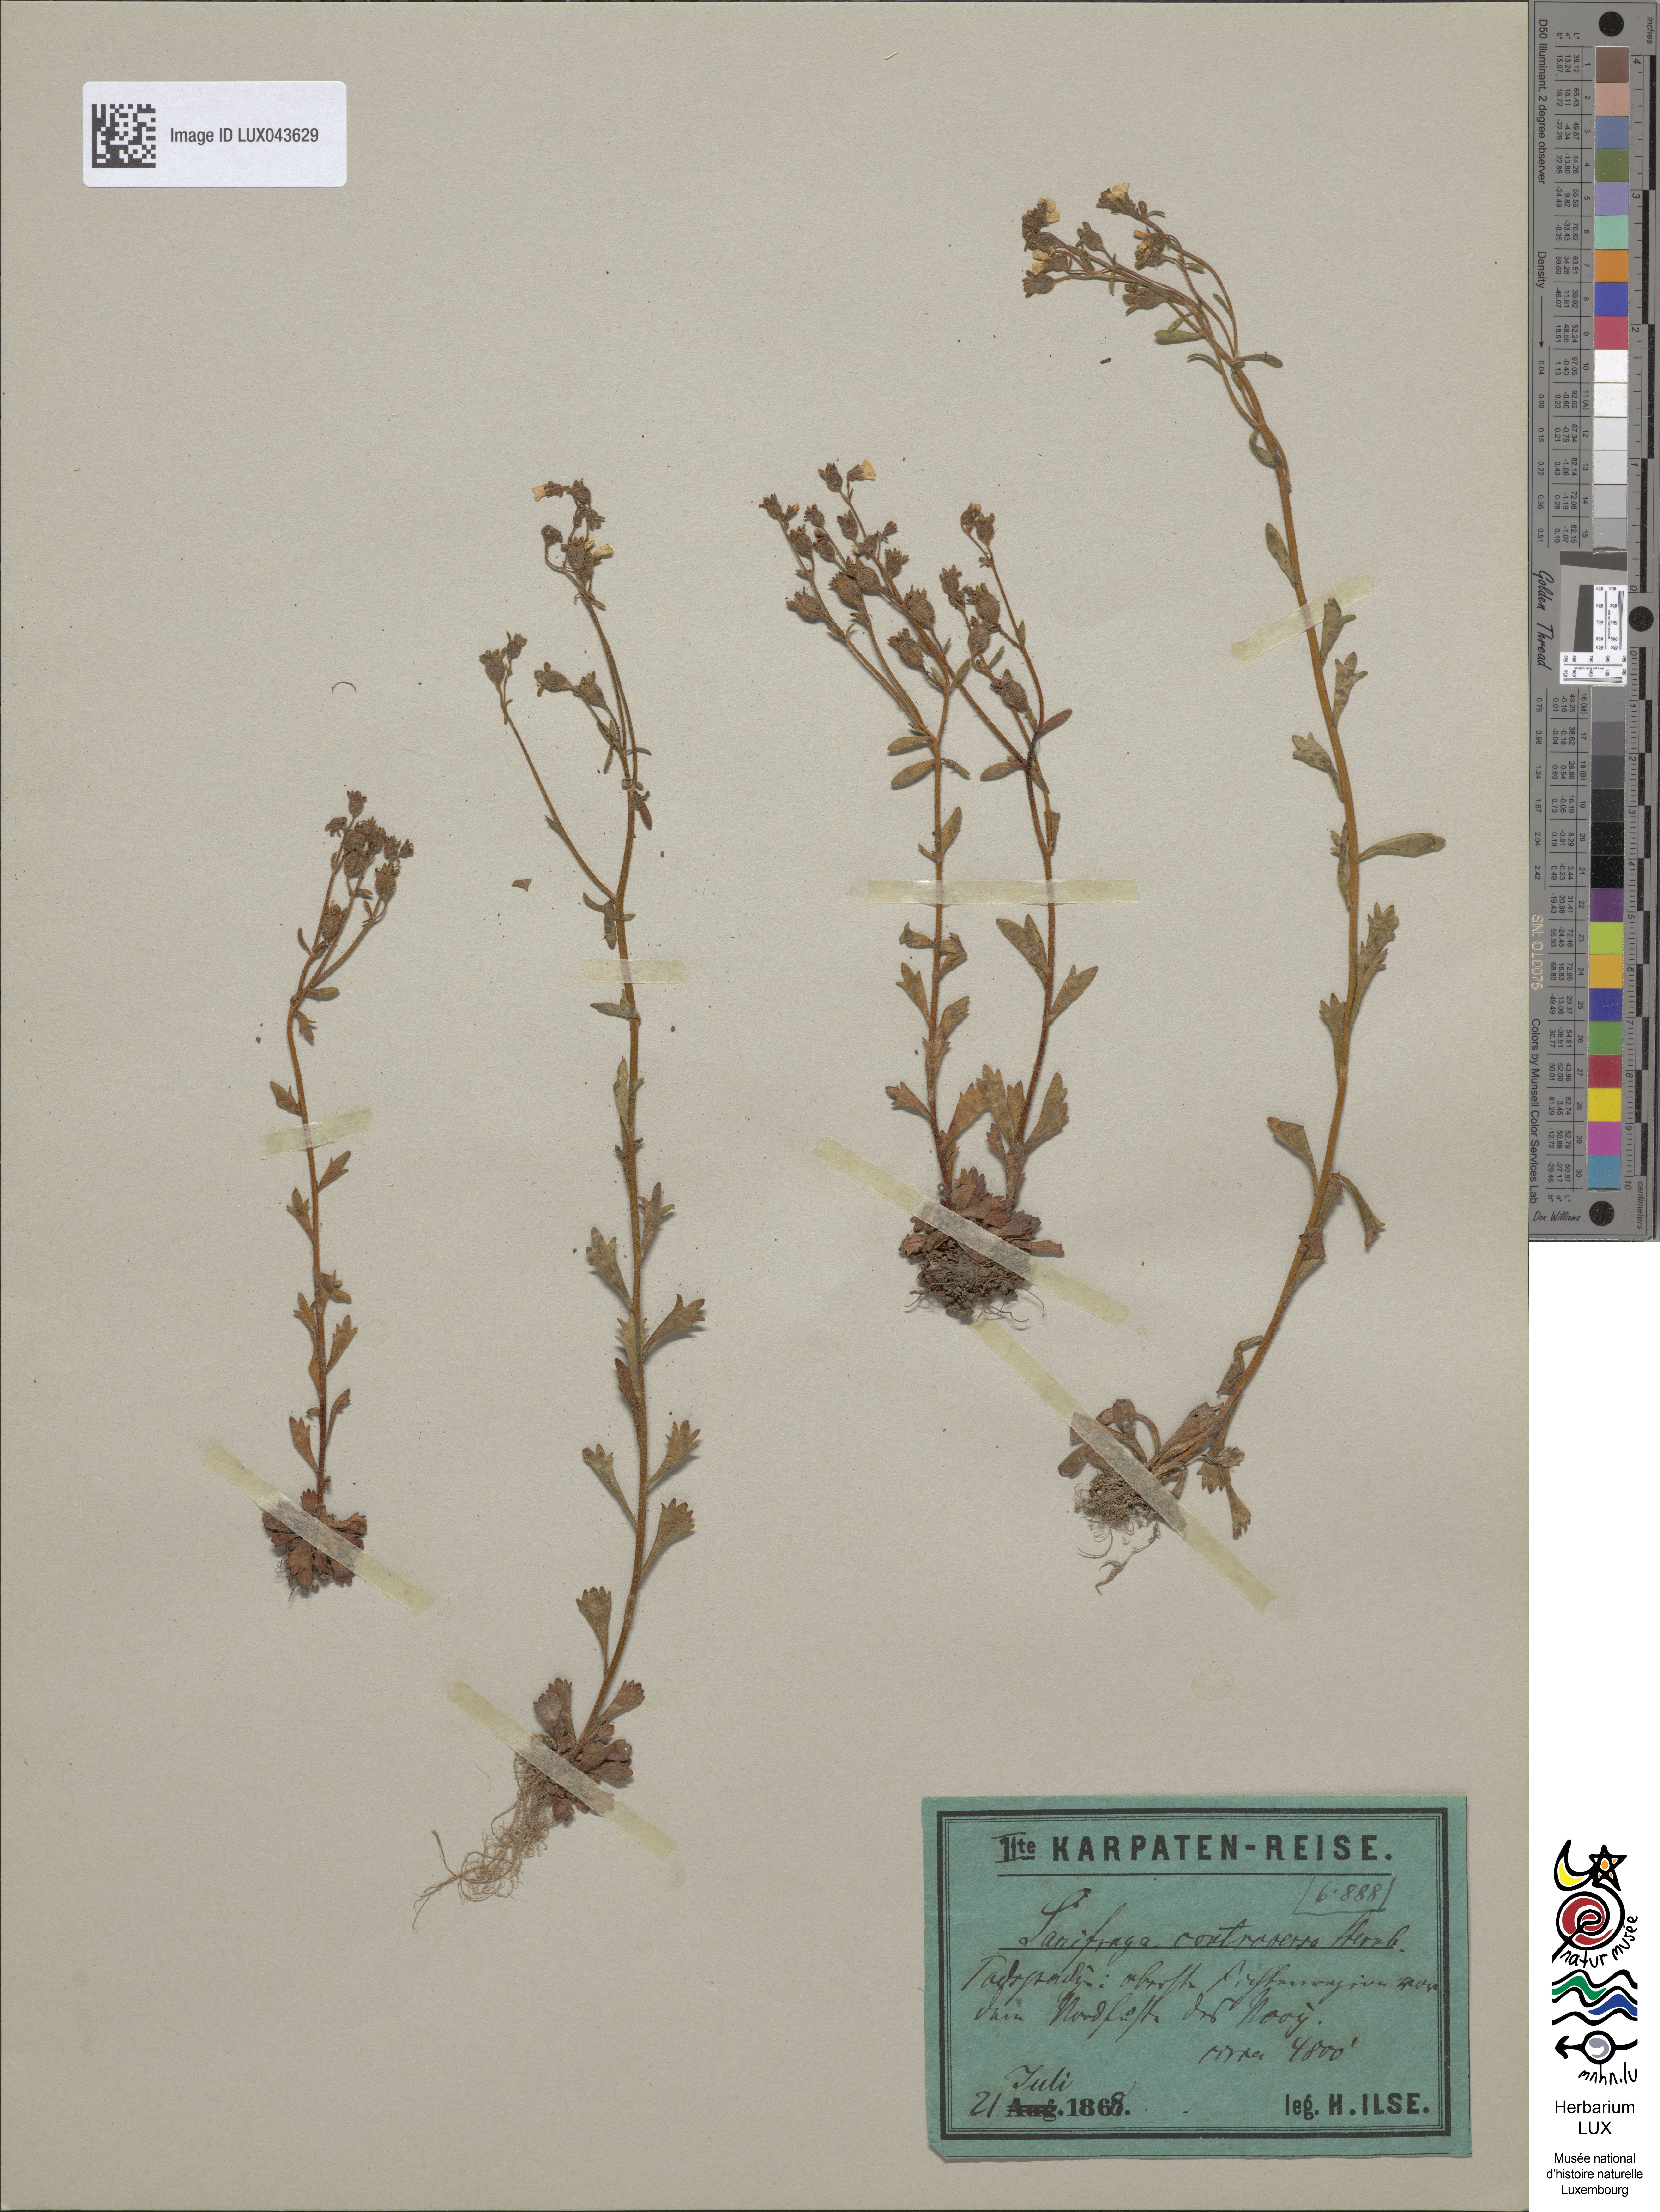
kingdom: Plantae
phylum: Tracheophyta
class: Magnoliopsida
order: Saxifragales
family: Saxifragaceae
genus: Saxifraga
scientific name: Saxifraga adscendens
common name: Ascending saxifrage
